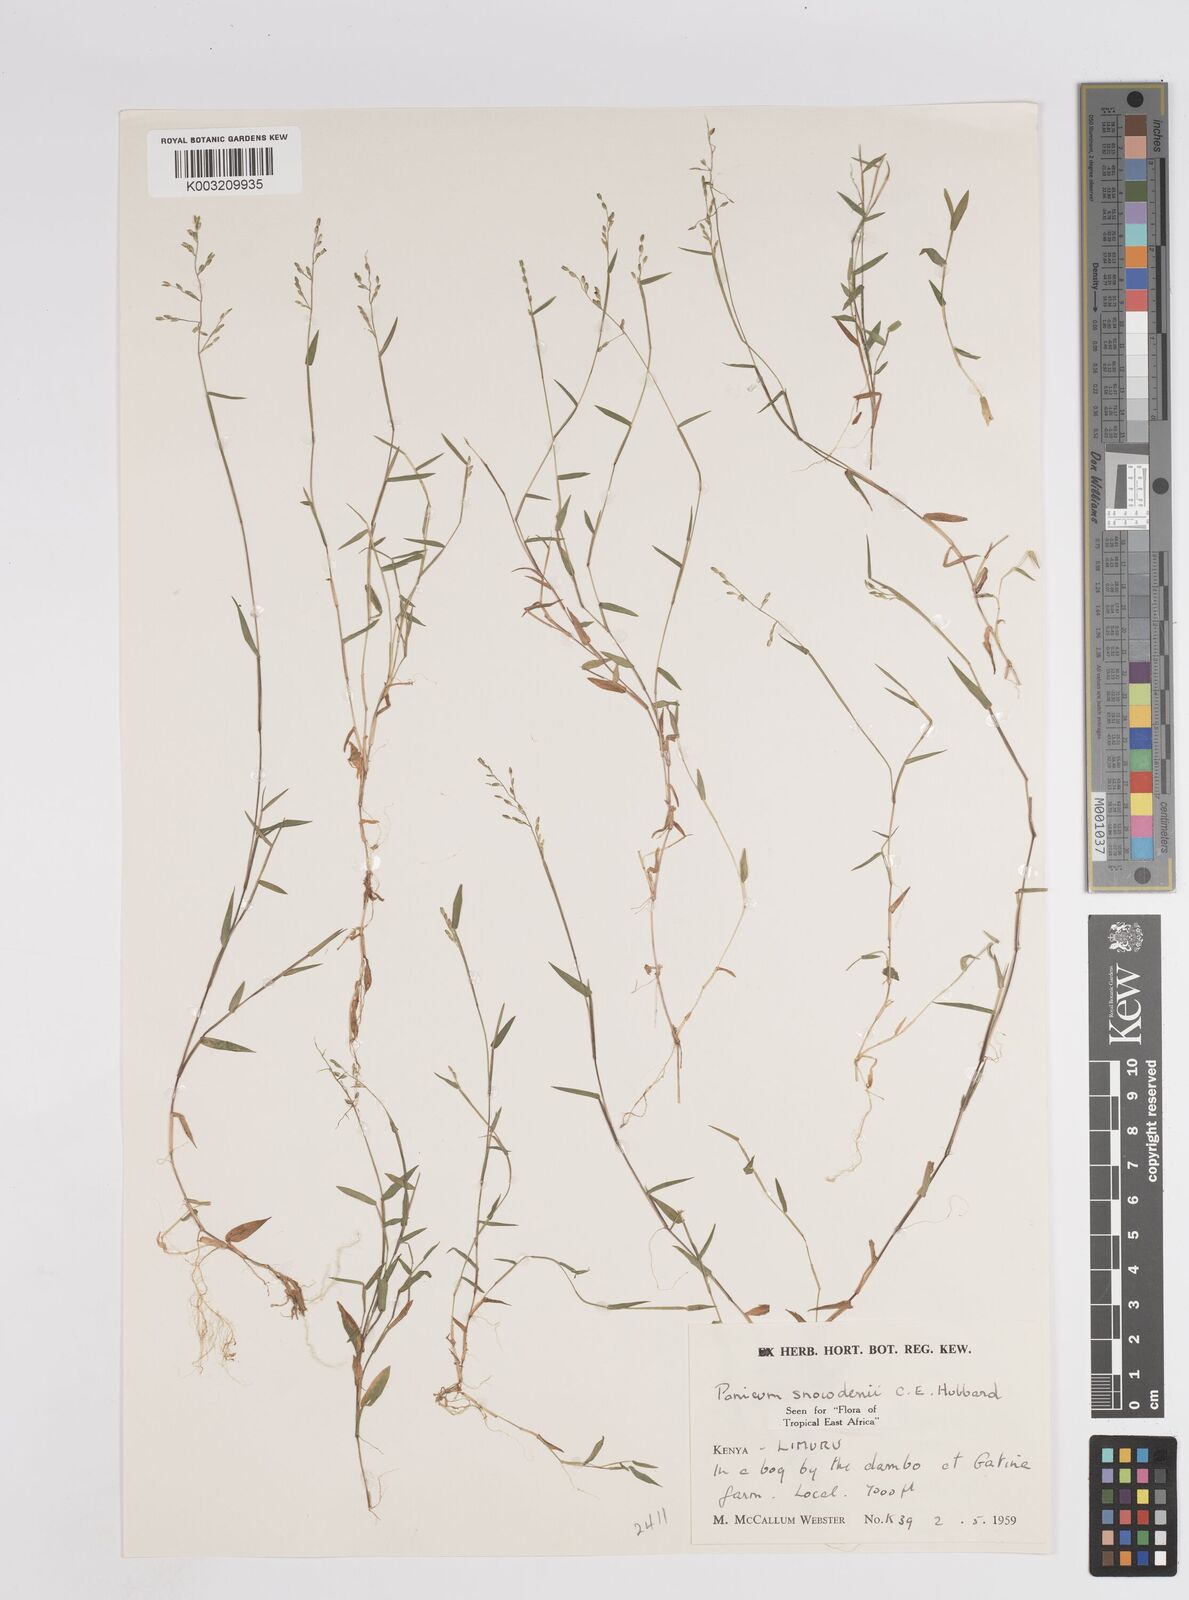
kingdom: Plantae
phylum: Tracheophyta
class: Liliopsida
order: Poales
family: Poaceae
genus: Adenochloa
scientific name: Adenochloa hymeniochila
